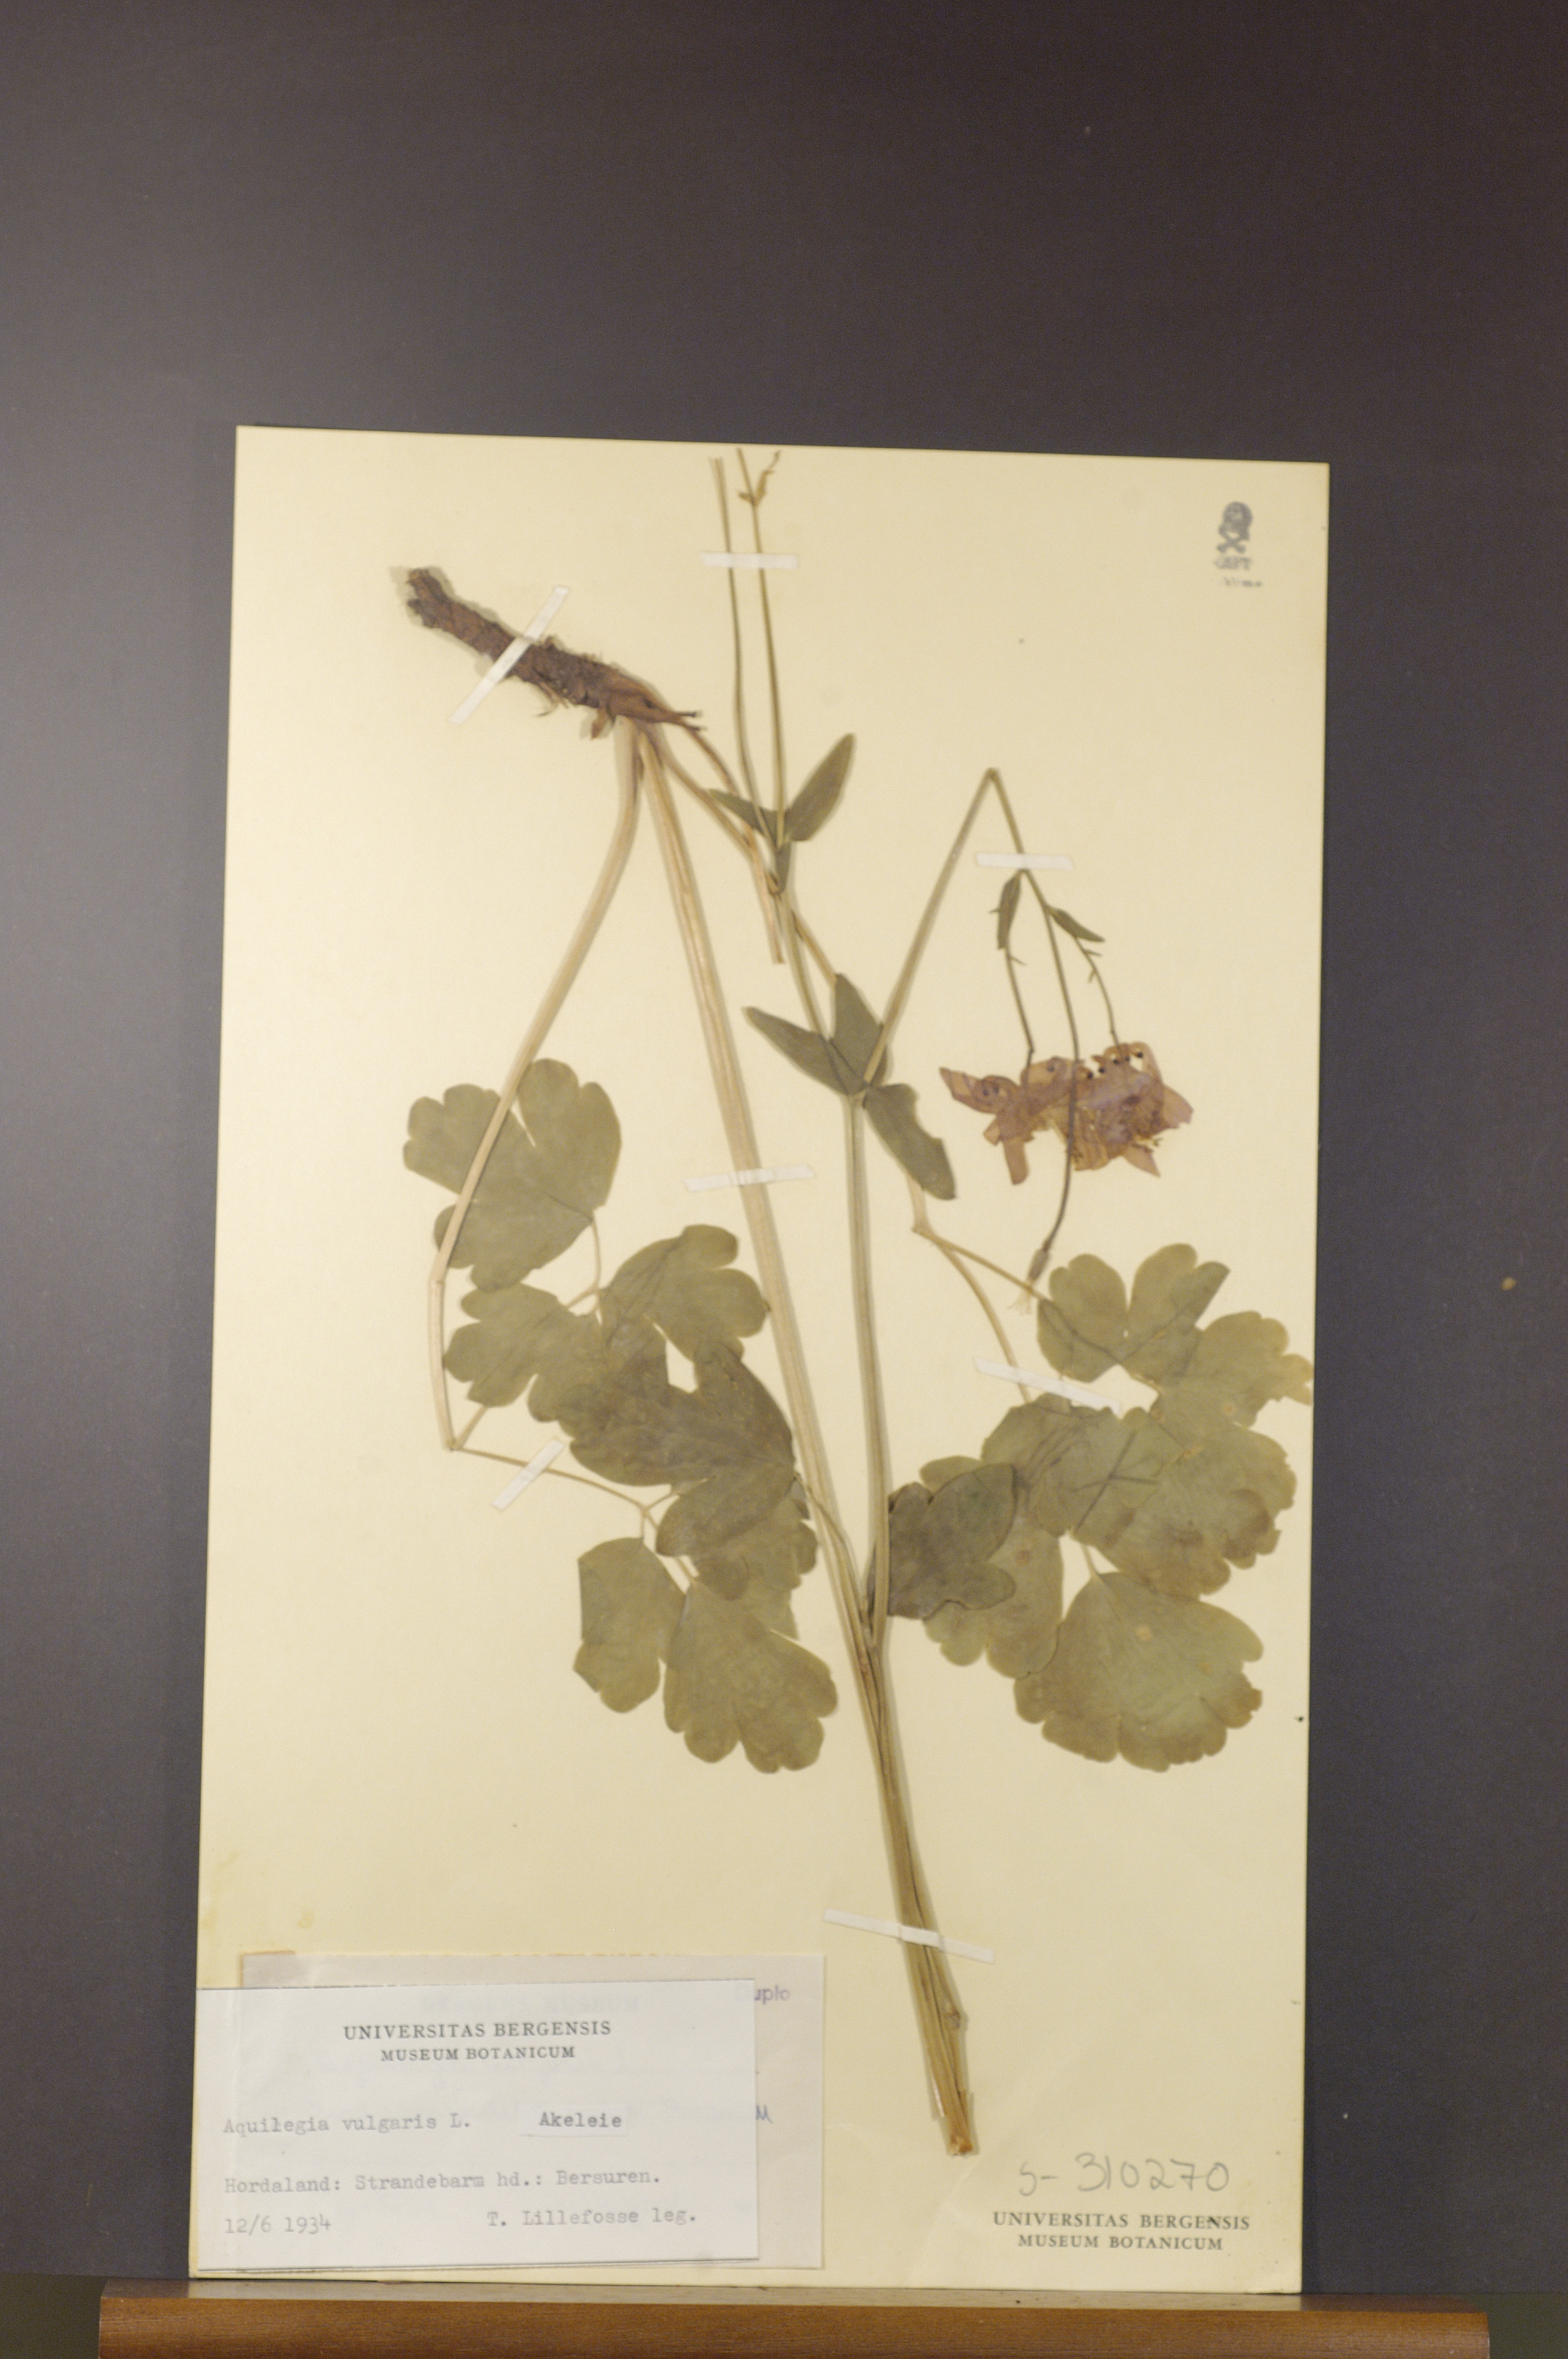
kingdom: Plantae
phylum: Tracheophyta
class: Magnoliopsida
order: Ranunculales
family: Ranunculaceae
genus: Aquilegia
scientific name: Aquilegia vulgaris
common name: Columbine
